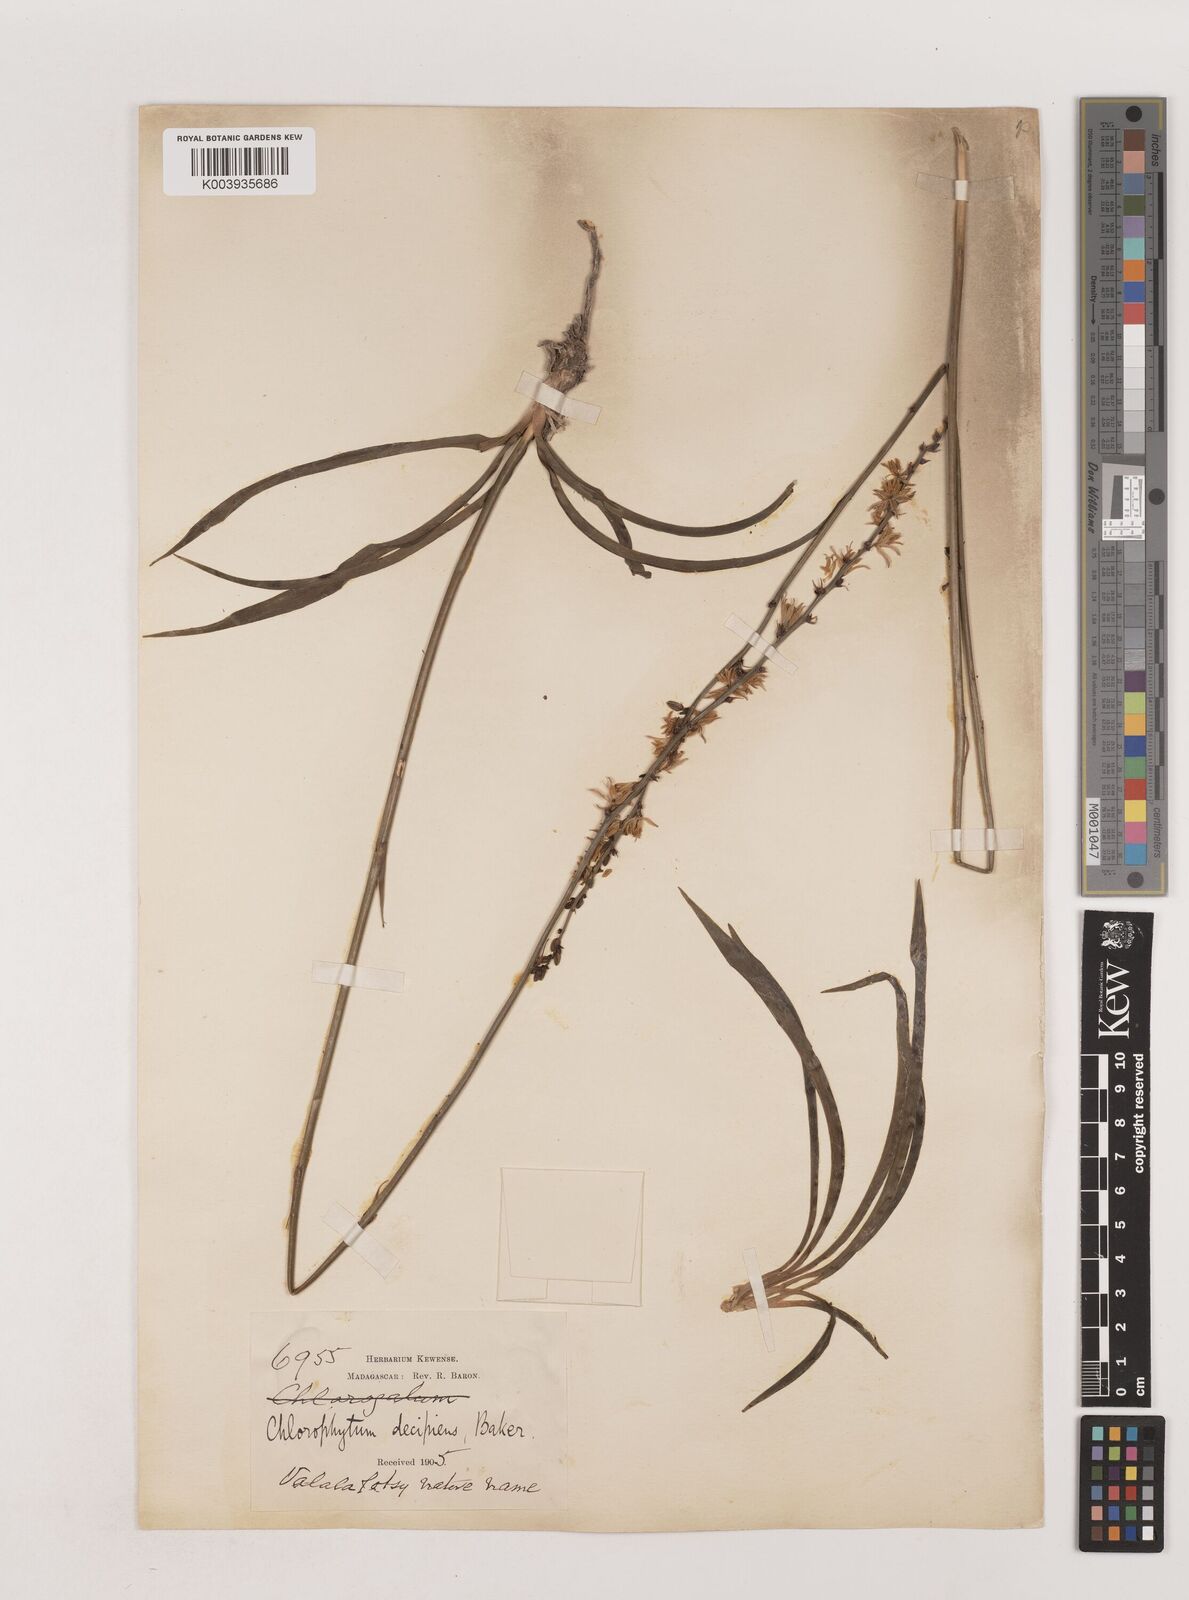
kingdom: Plantae
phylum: Tracheophyta
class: Liliopsida
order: Asparagales
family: Asparagaceae
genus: Chlorophytum
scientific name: Chlorophytum madagascariense
